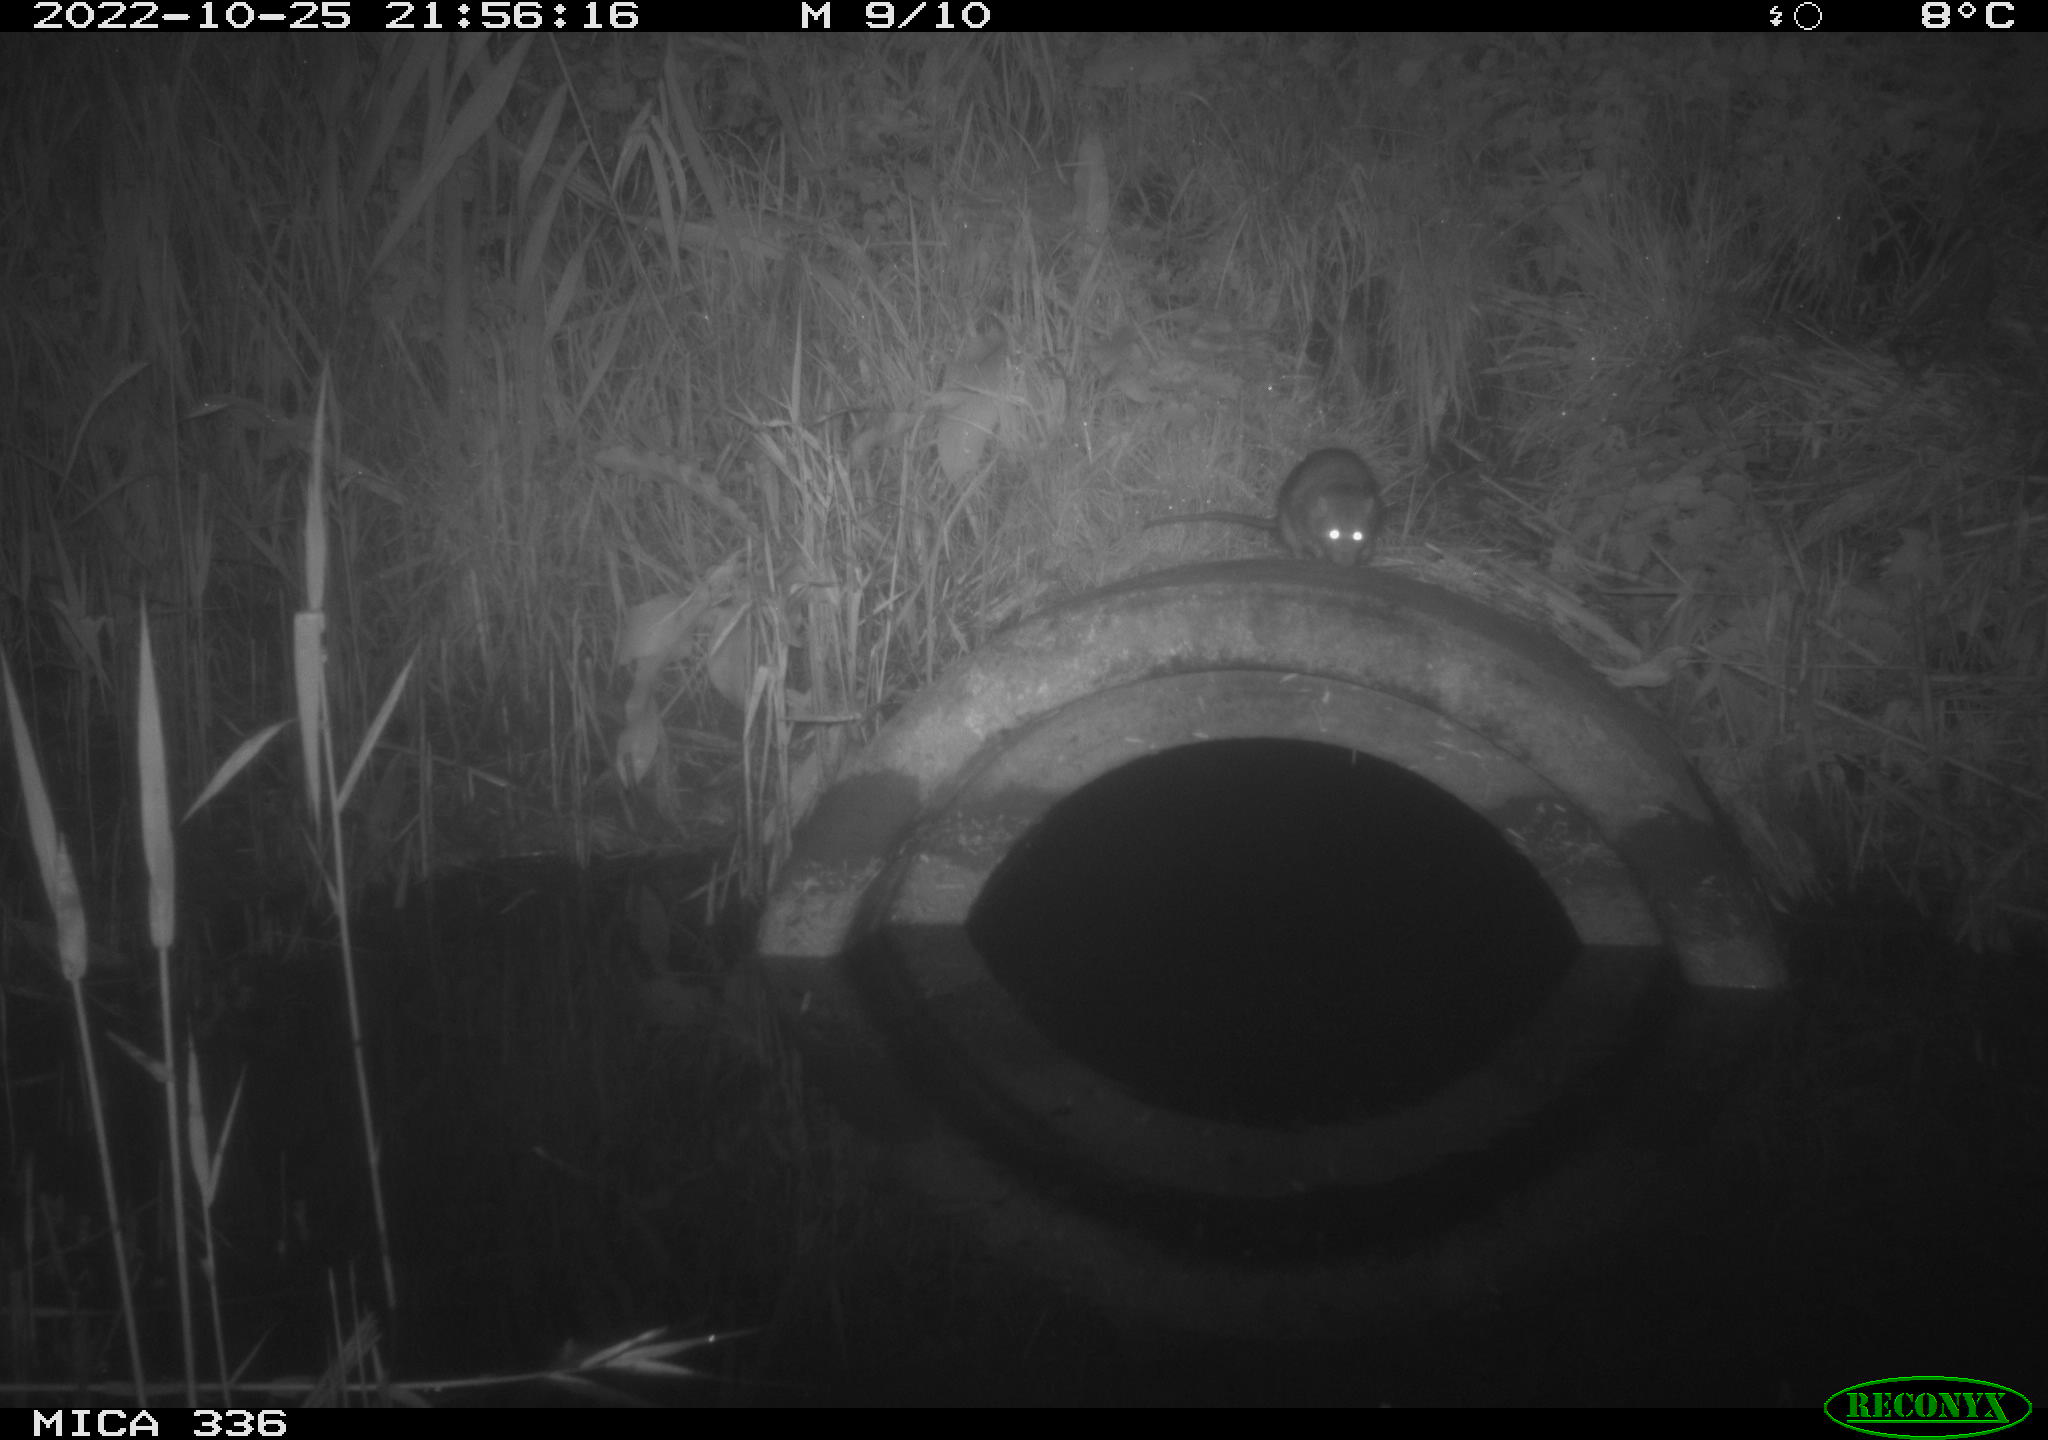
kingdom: Animalia
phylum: Chordata
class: Mammalia
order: Rodentia
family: Muridae
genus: Rattus
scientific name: Rattus norvegicus
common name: Brown rat
